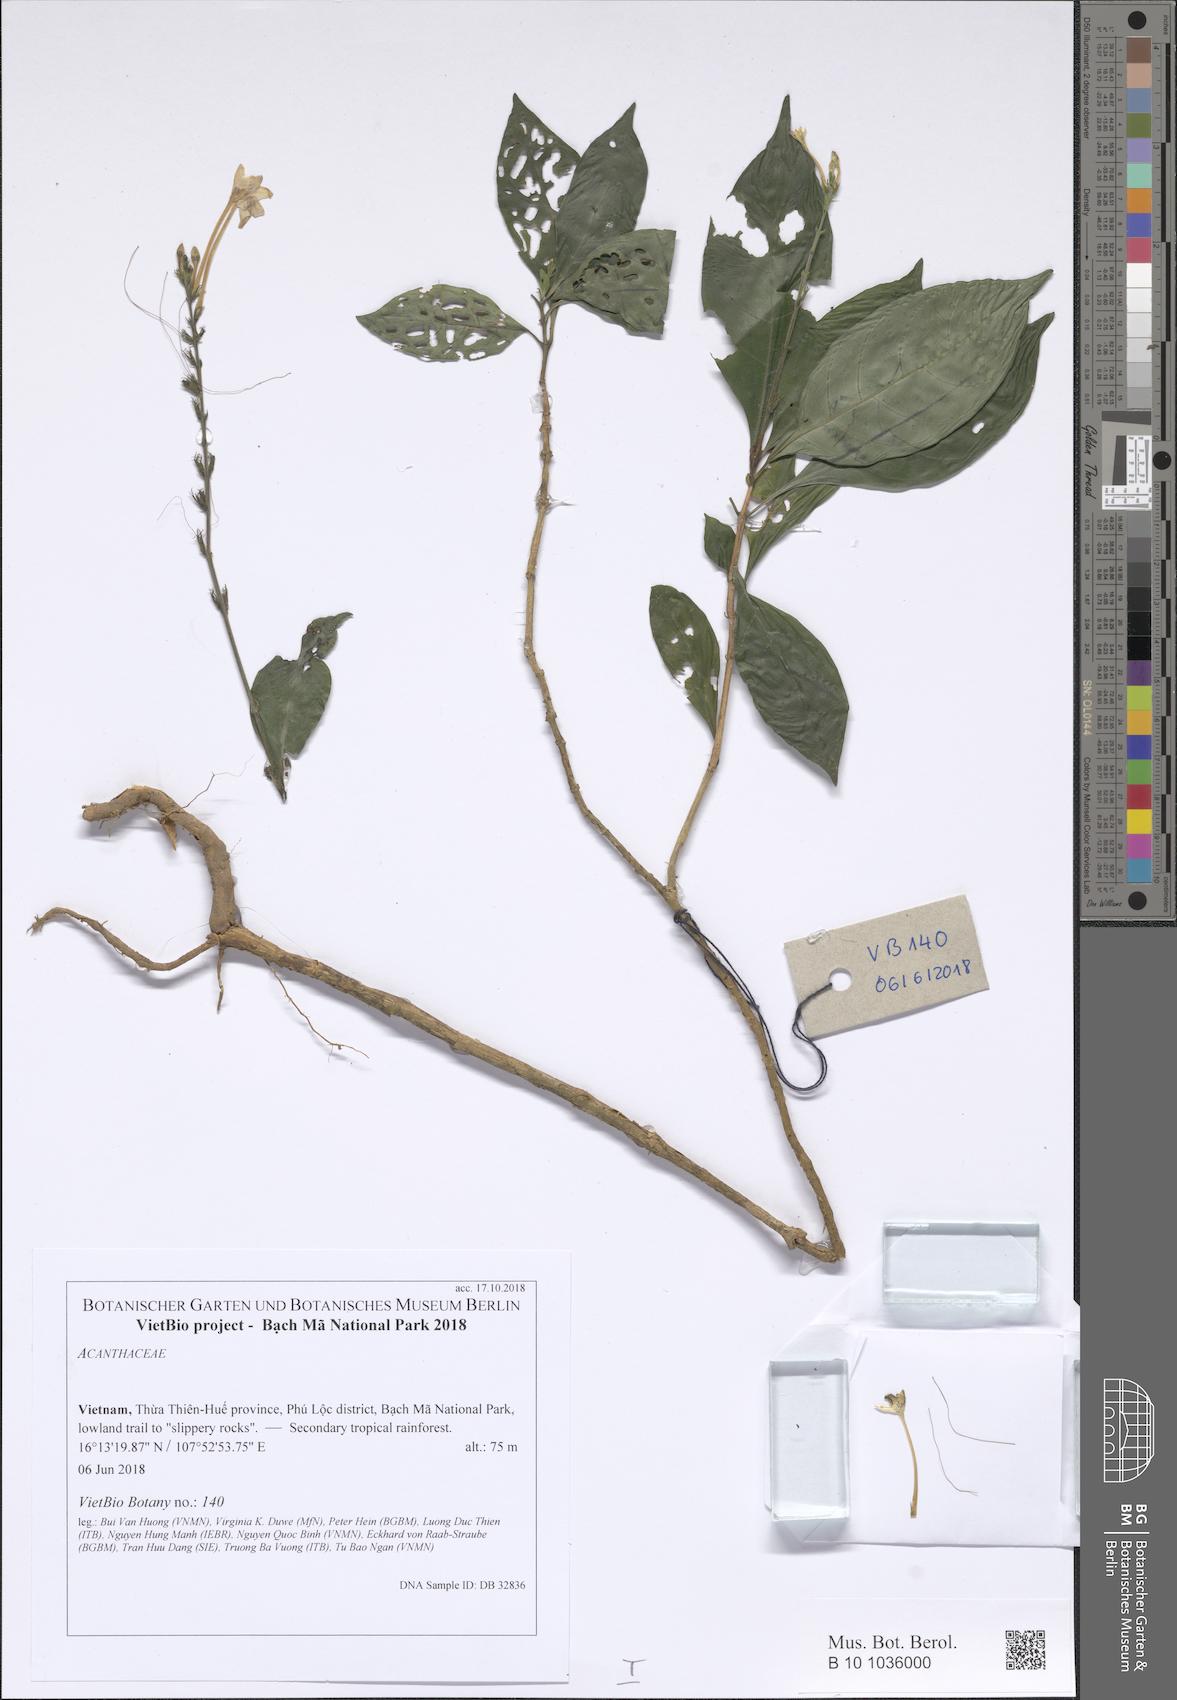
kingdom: Plantae
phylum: Tracheophyta
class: Magnoliopsida
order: Lamiales
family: Acanthaceae
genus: Pseuderanthemum
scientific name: Pseuderanthemum latifolium
